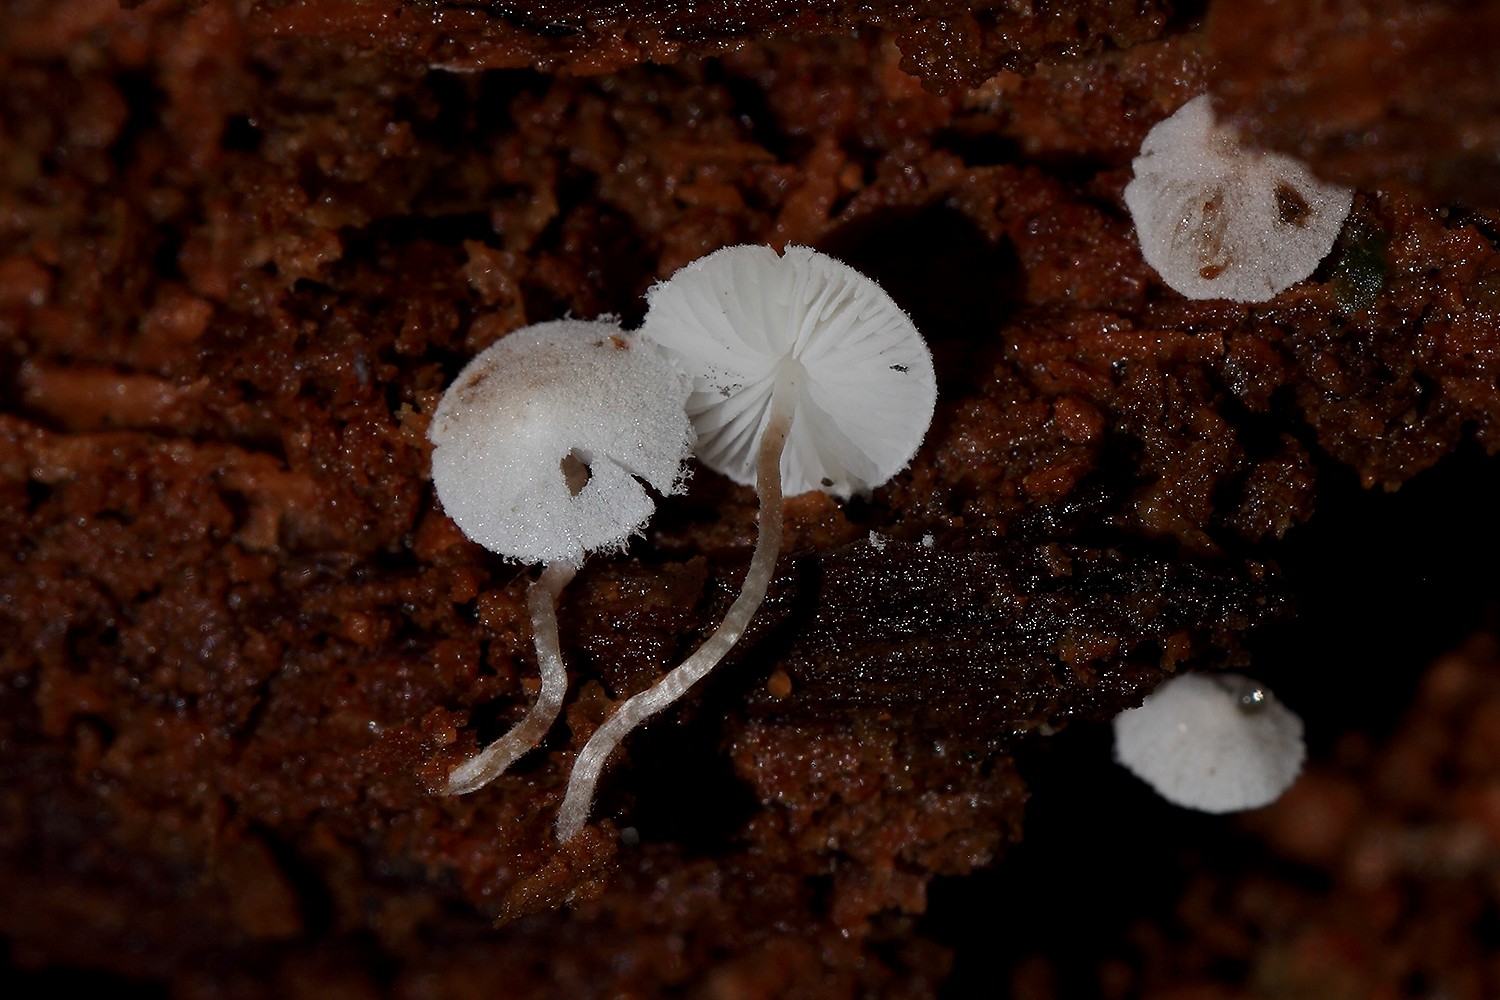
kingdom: Fungi
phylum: Basidiomycota
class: Agaricomycetes
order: Agaricales
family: Agaricaceae
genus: Cystolepiota
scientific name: Cystolepiota seminuda
